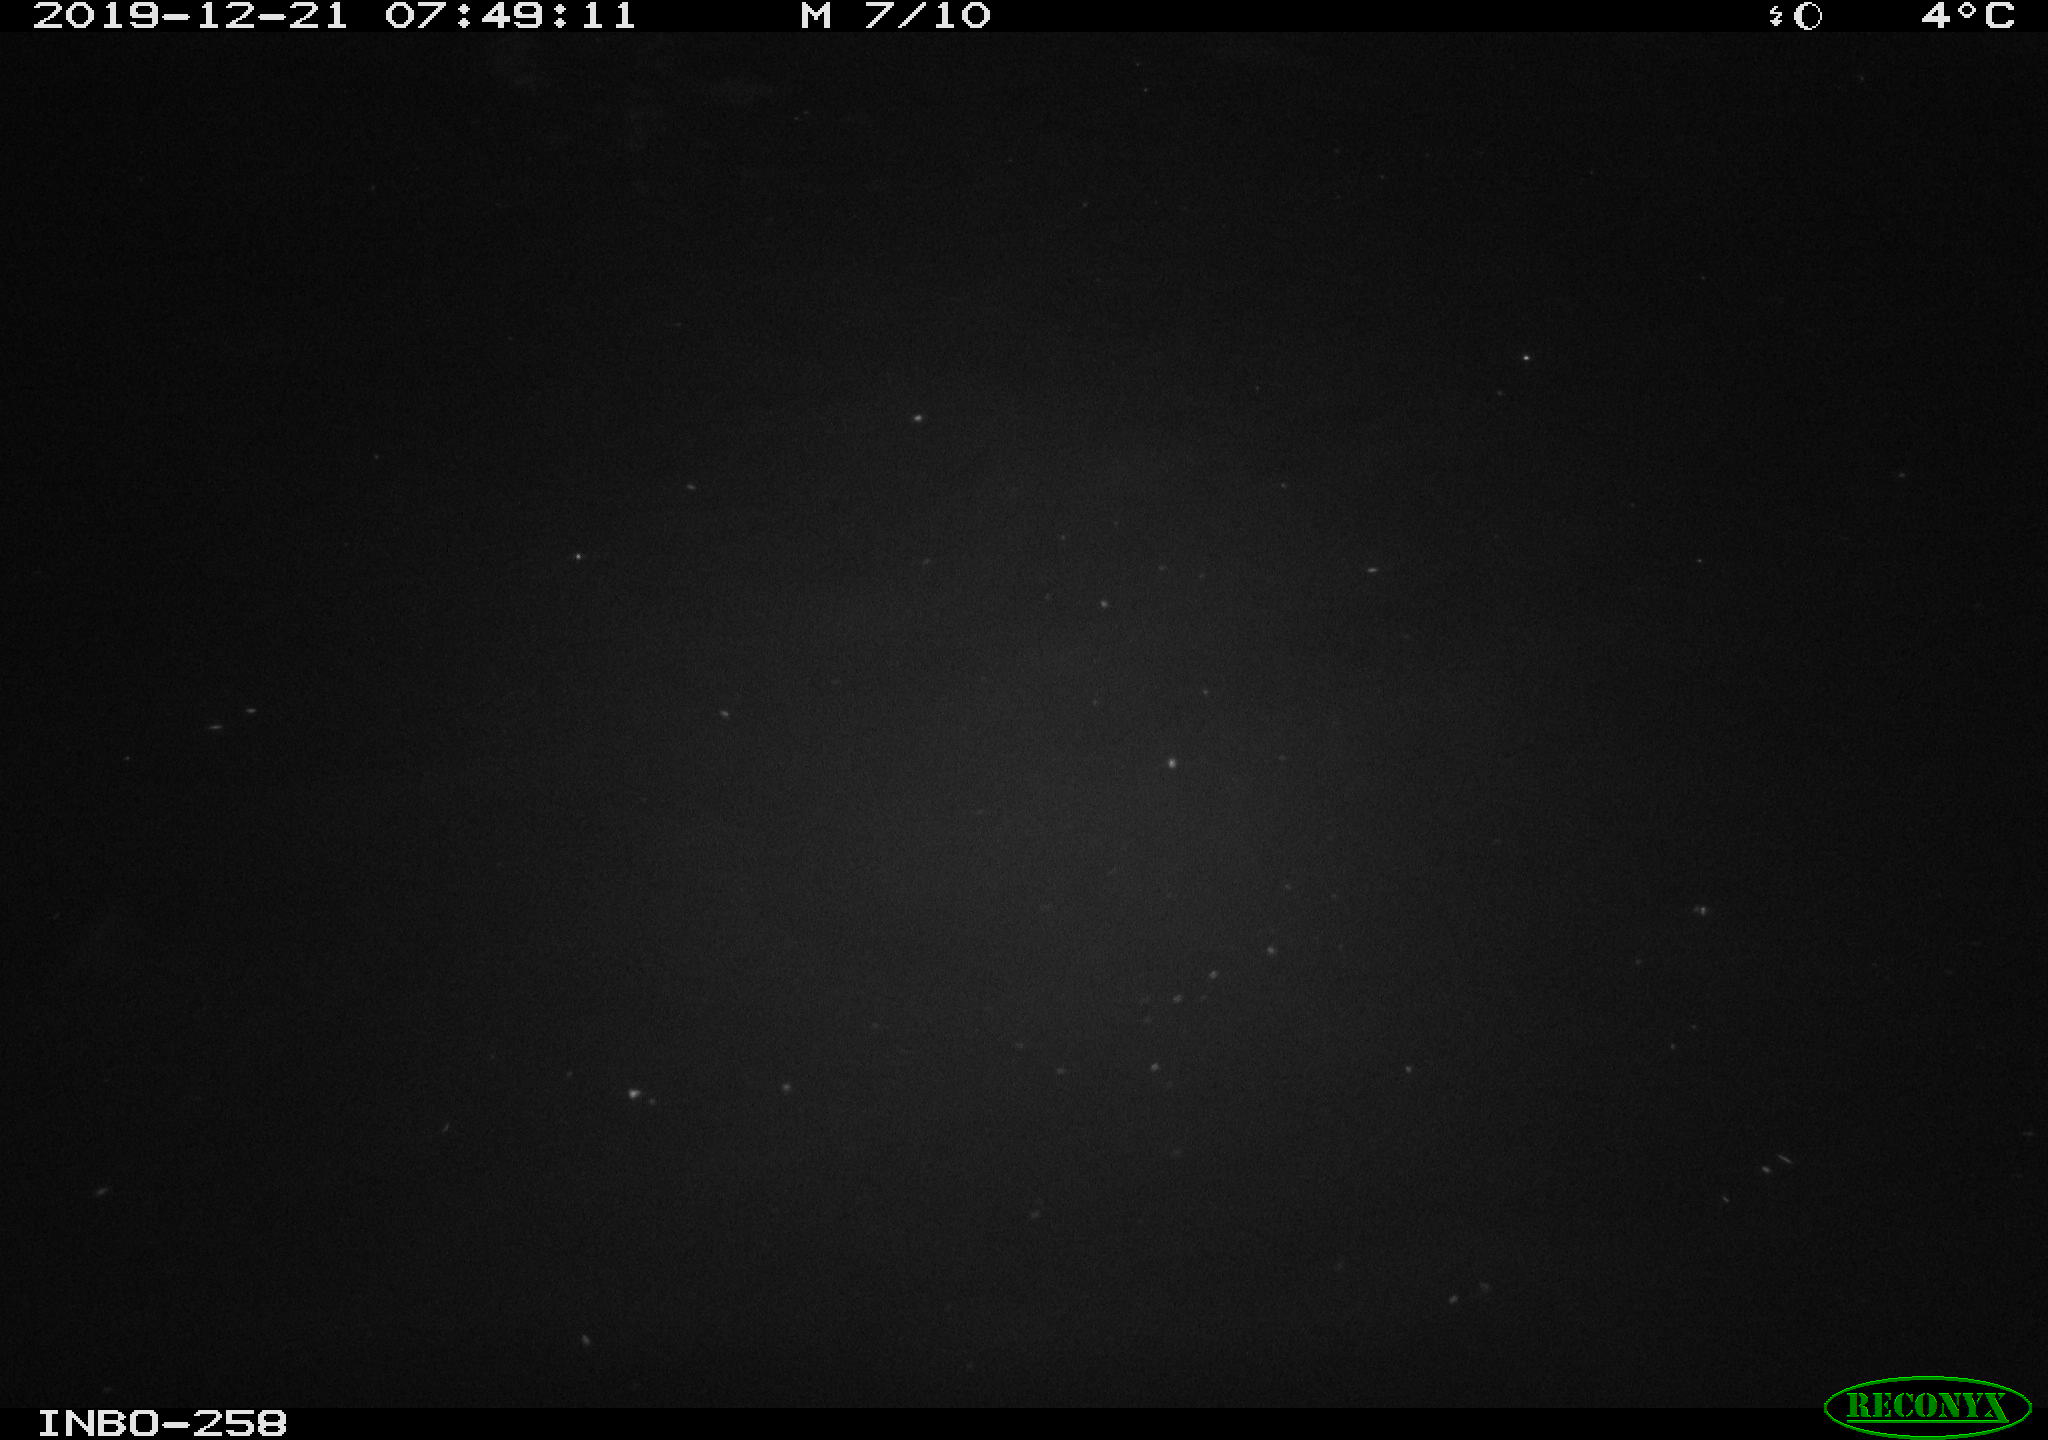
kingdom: Animalia
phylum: Chordata
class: Aves
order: Anseriformes
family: Anatidae
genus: Anas
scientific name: Anas platyrhynchos
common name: Mallard
